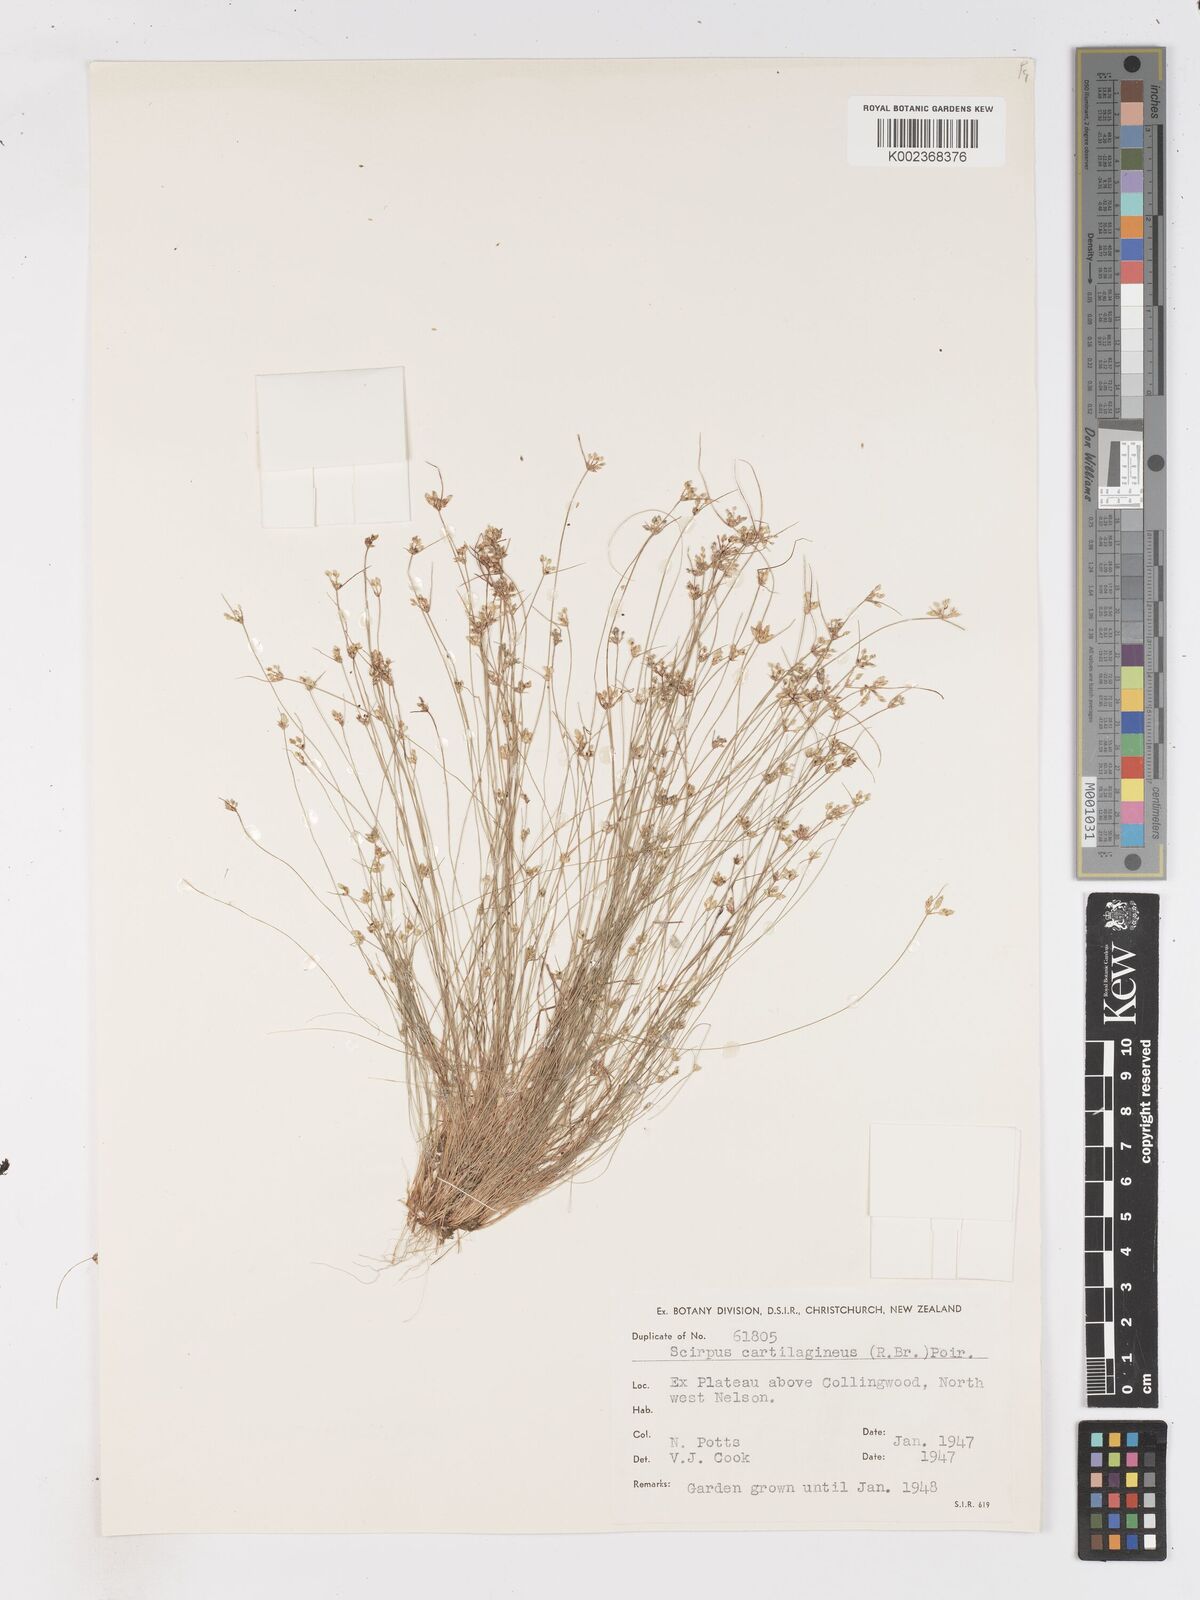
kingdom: Plantae
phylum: Tracheophyta
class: Liliopsida
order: Poales
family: Cyperaceae
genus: Isolepis
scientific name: Isolepis marginata
